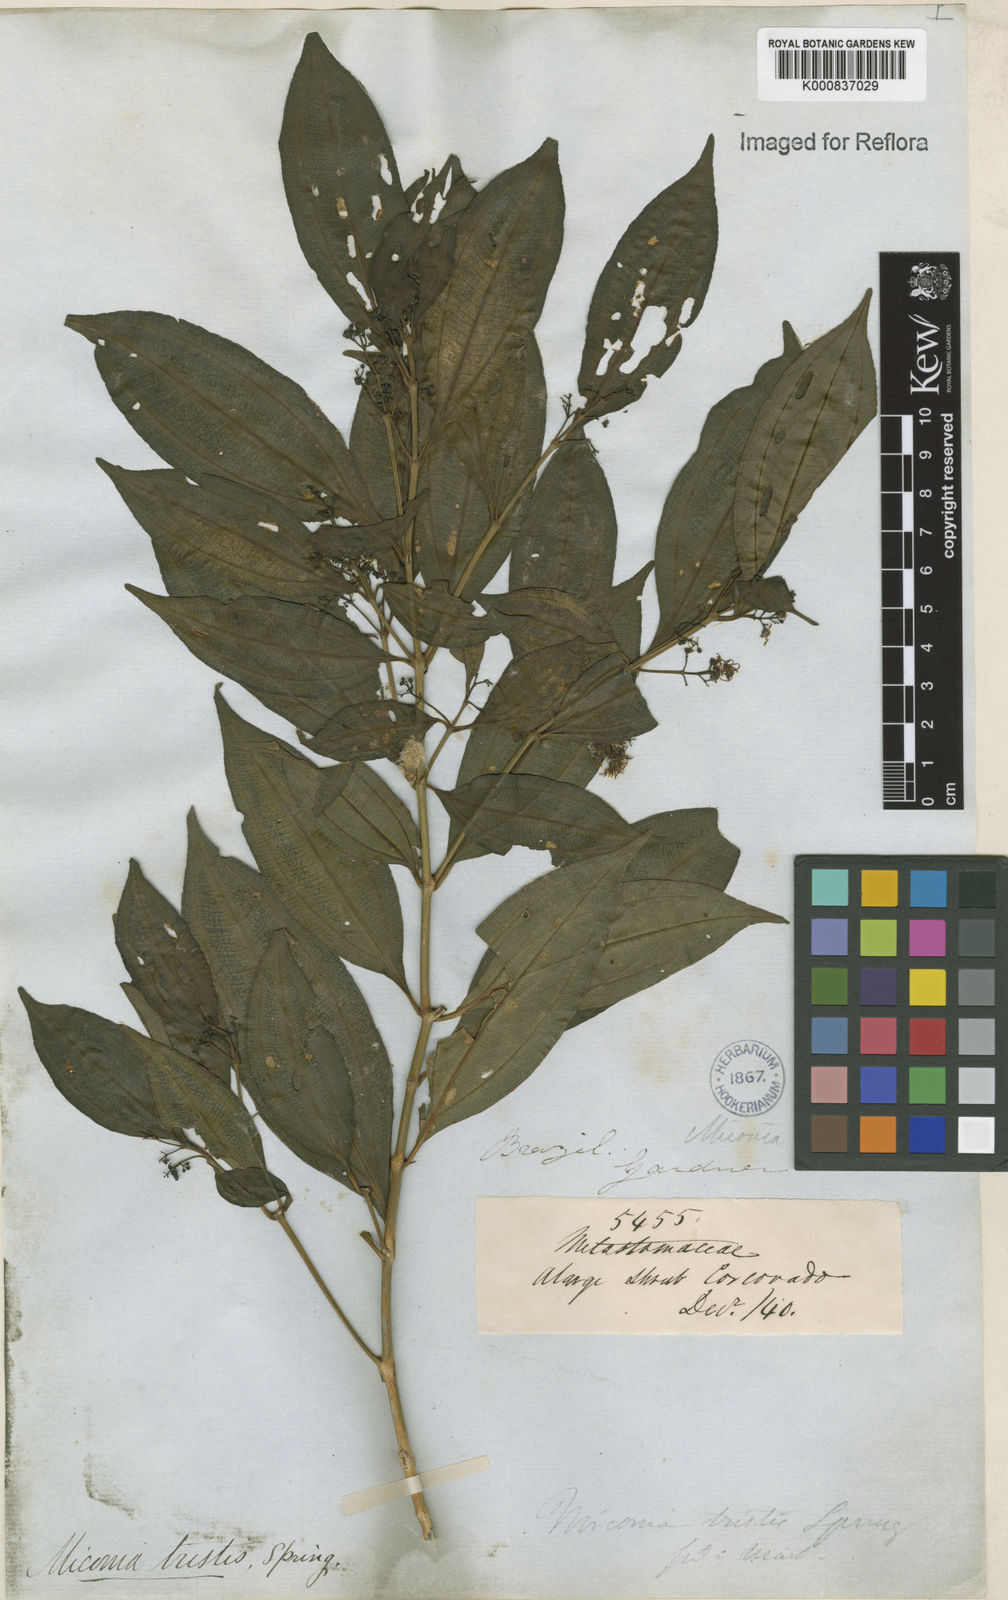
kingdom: Plantae
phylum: Tracheophyta
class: Magnoliopsida
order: Myrtales
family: Melastomataceae
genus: Miconia
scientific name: Miconia
